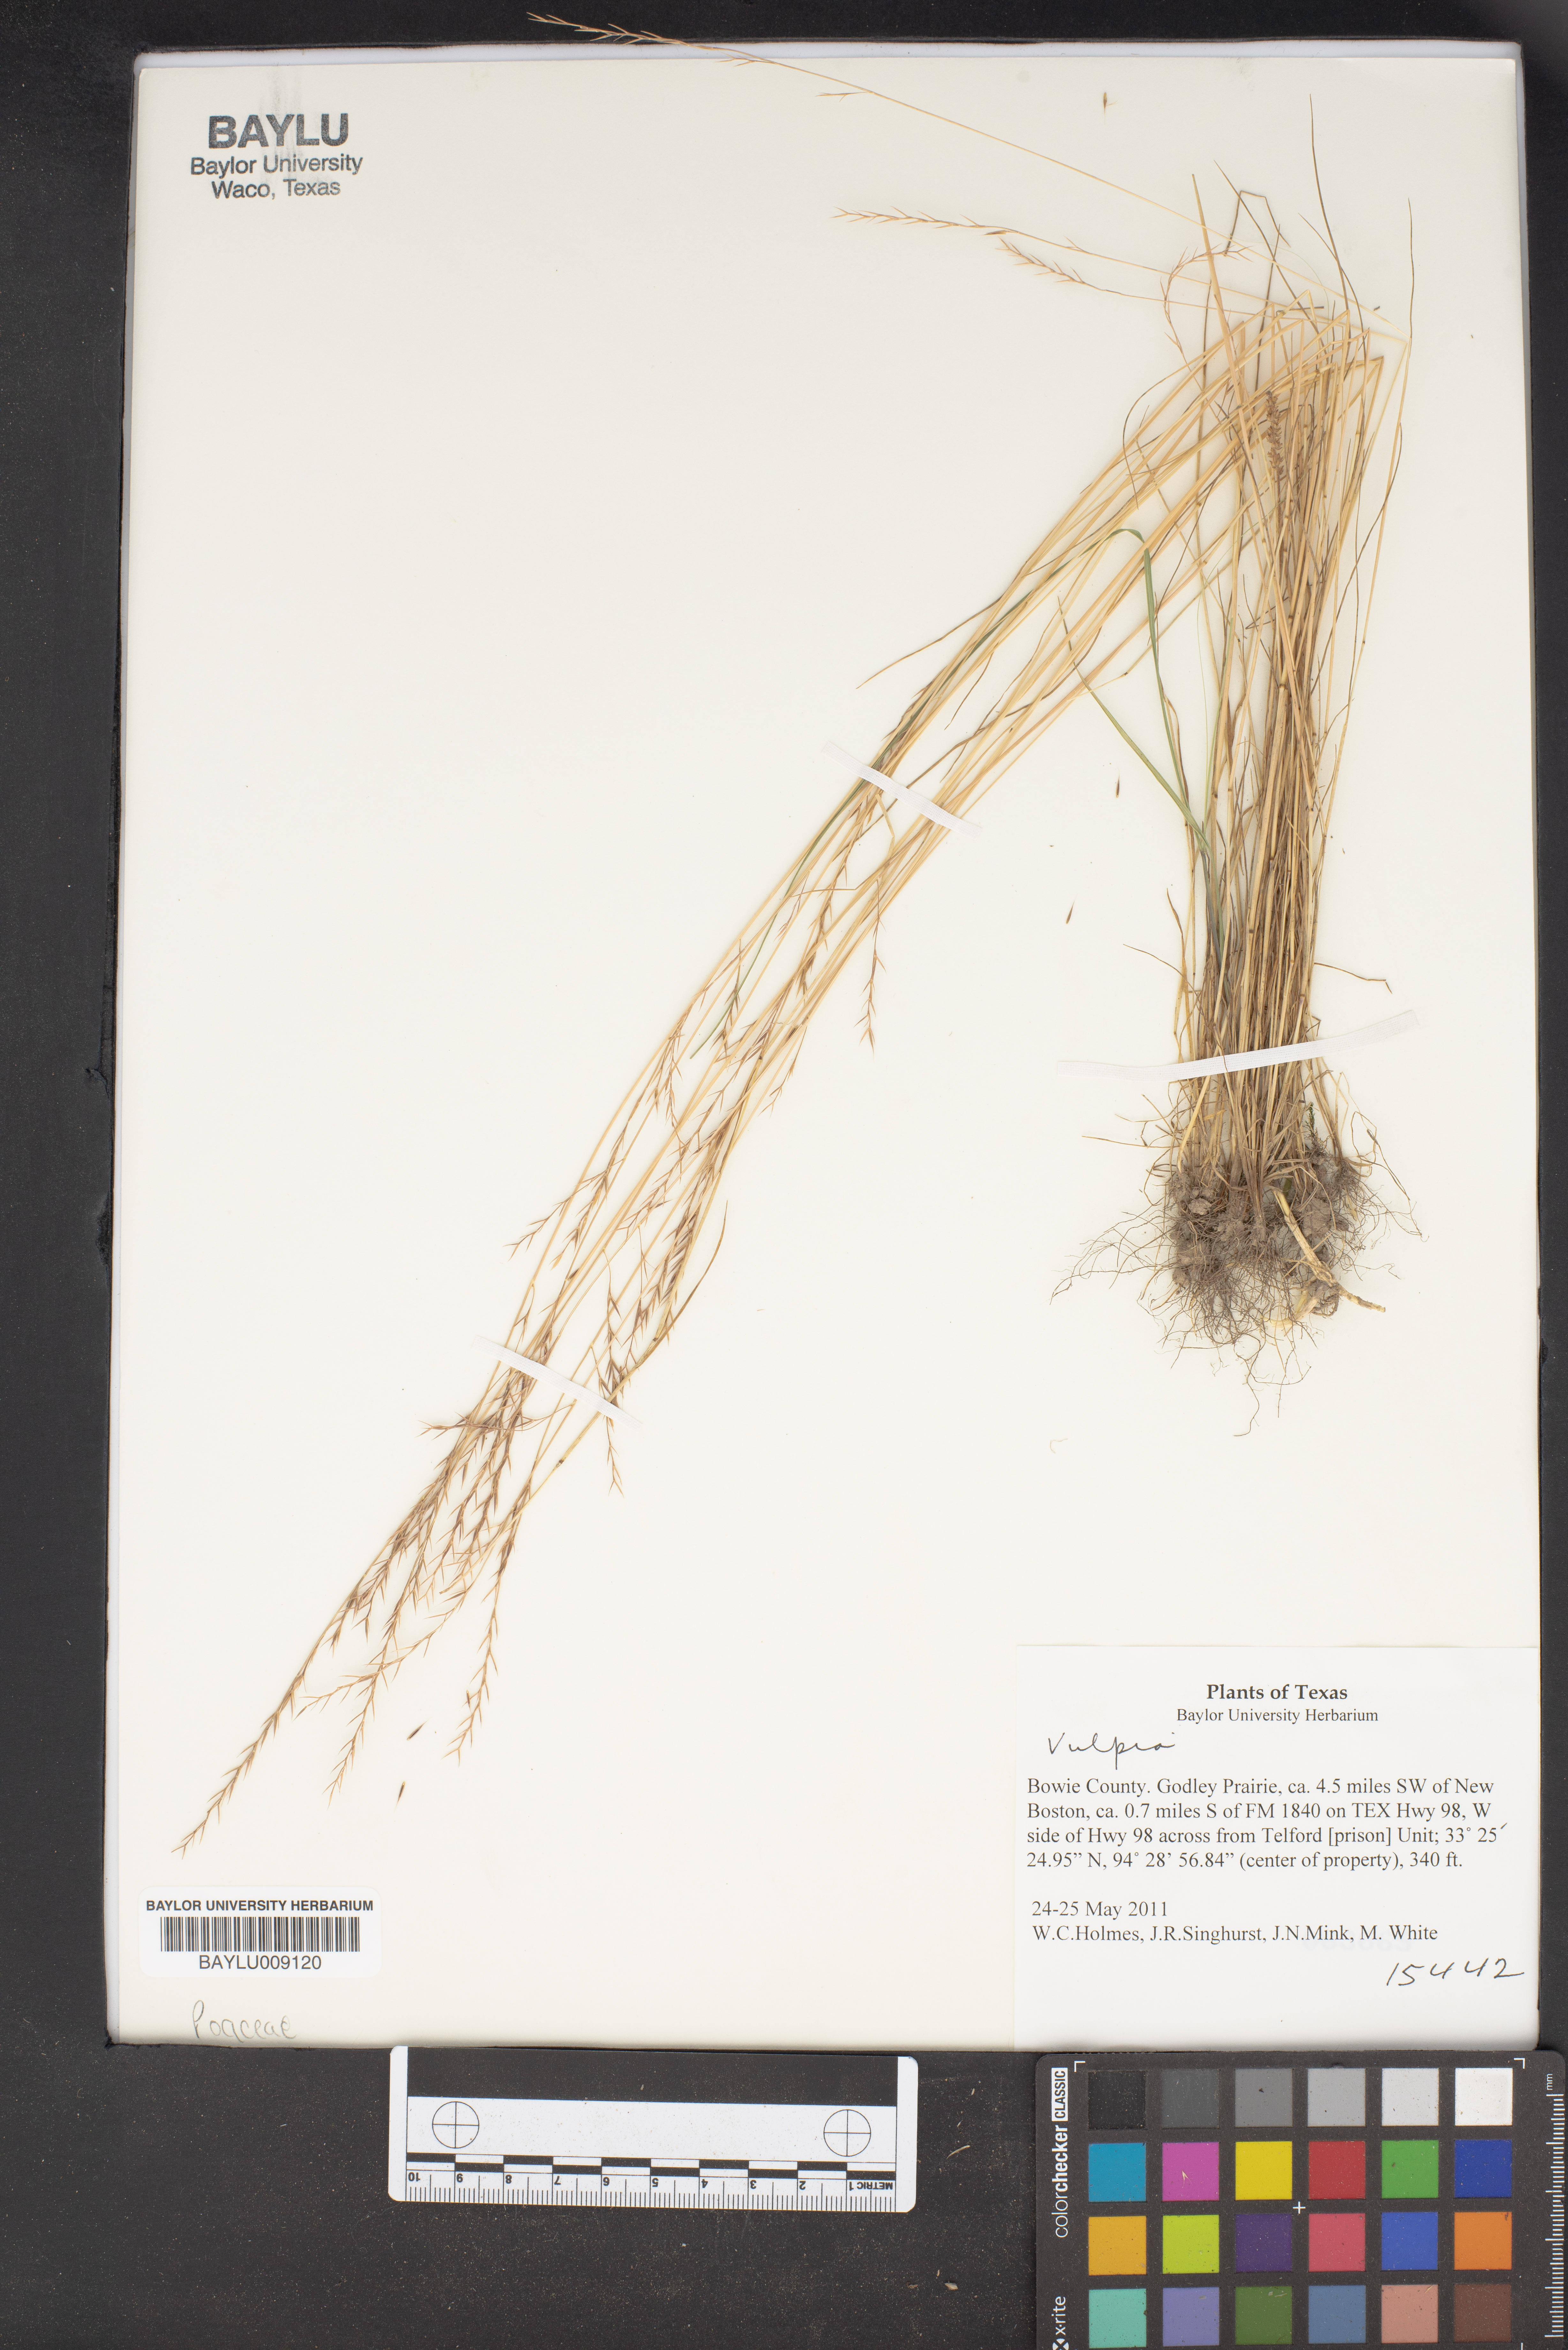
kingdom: Plantae
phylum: Tracheophyta
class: Liliopsida
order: Poales
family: Poaceae
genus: Festuca
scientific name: Festuca
